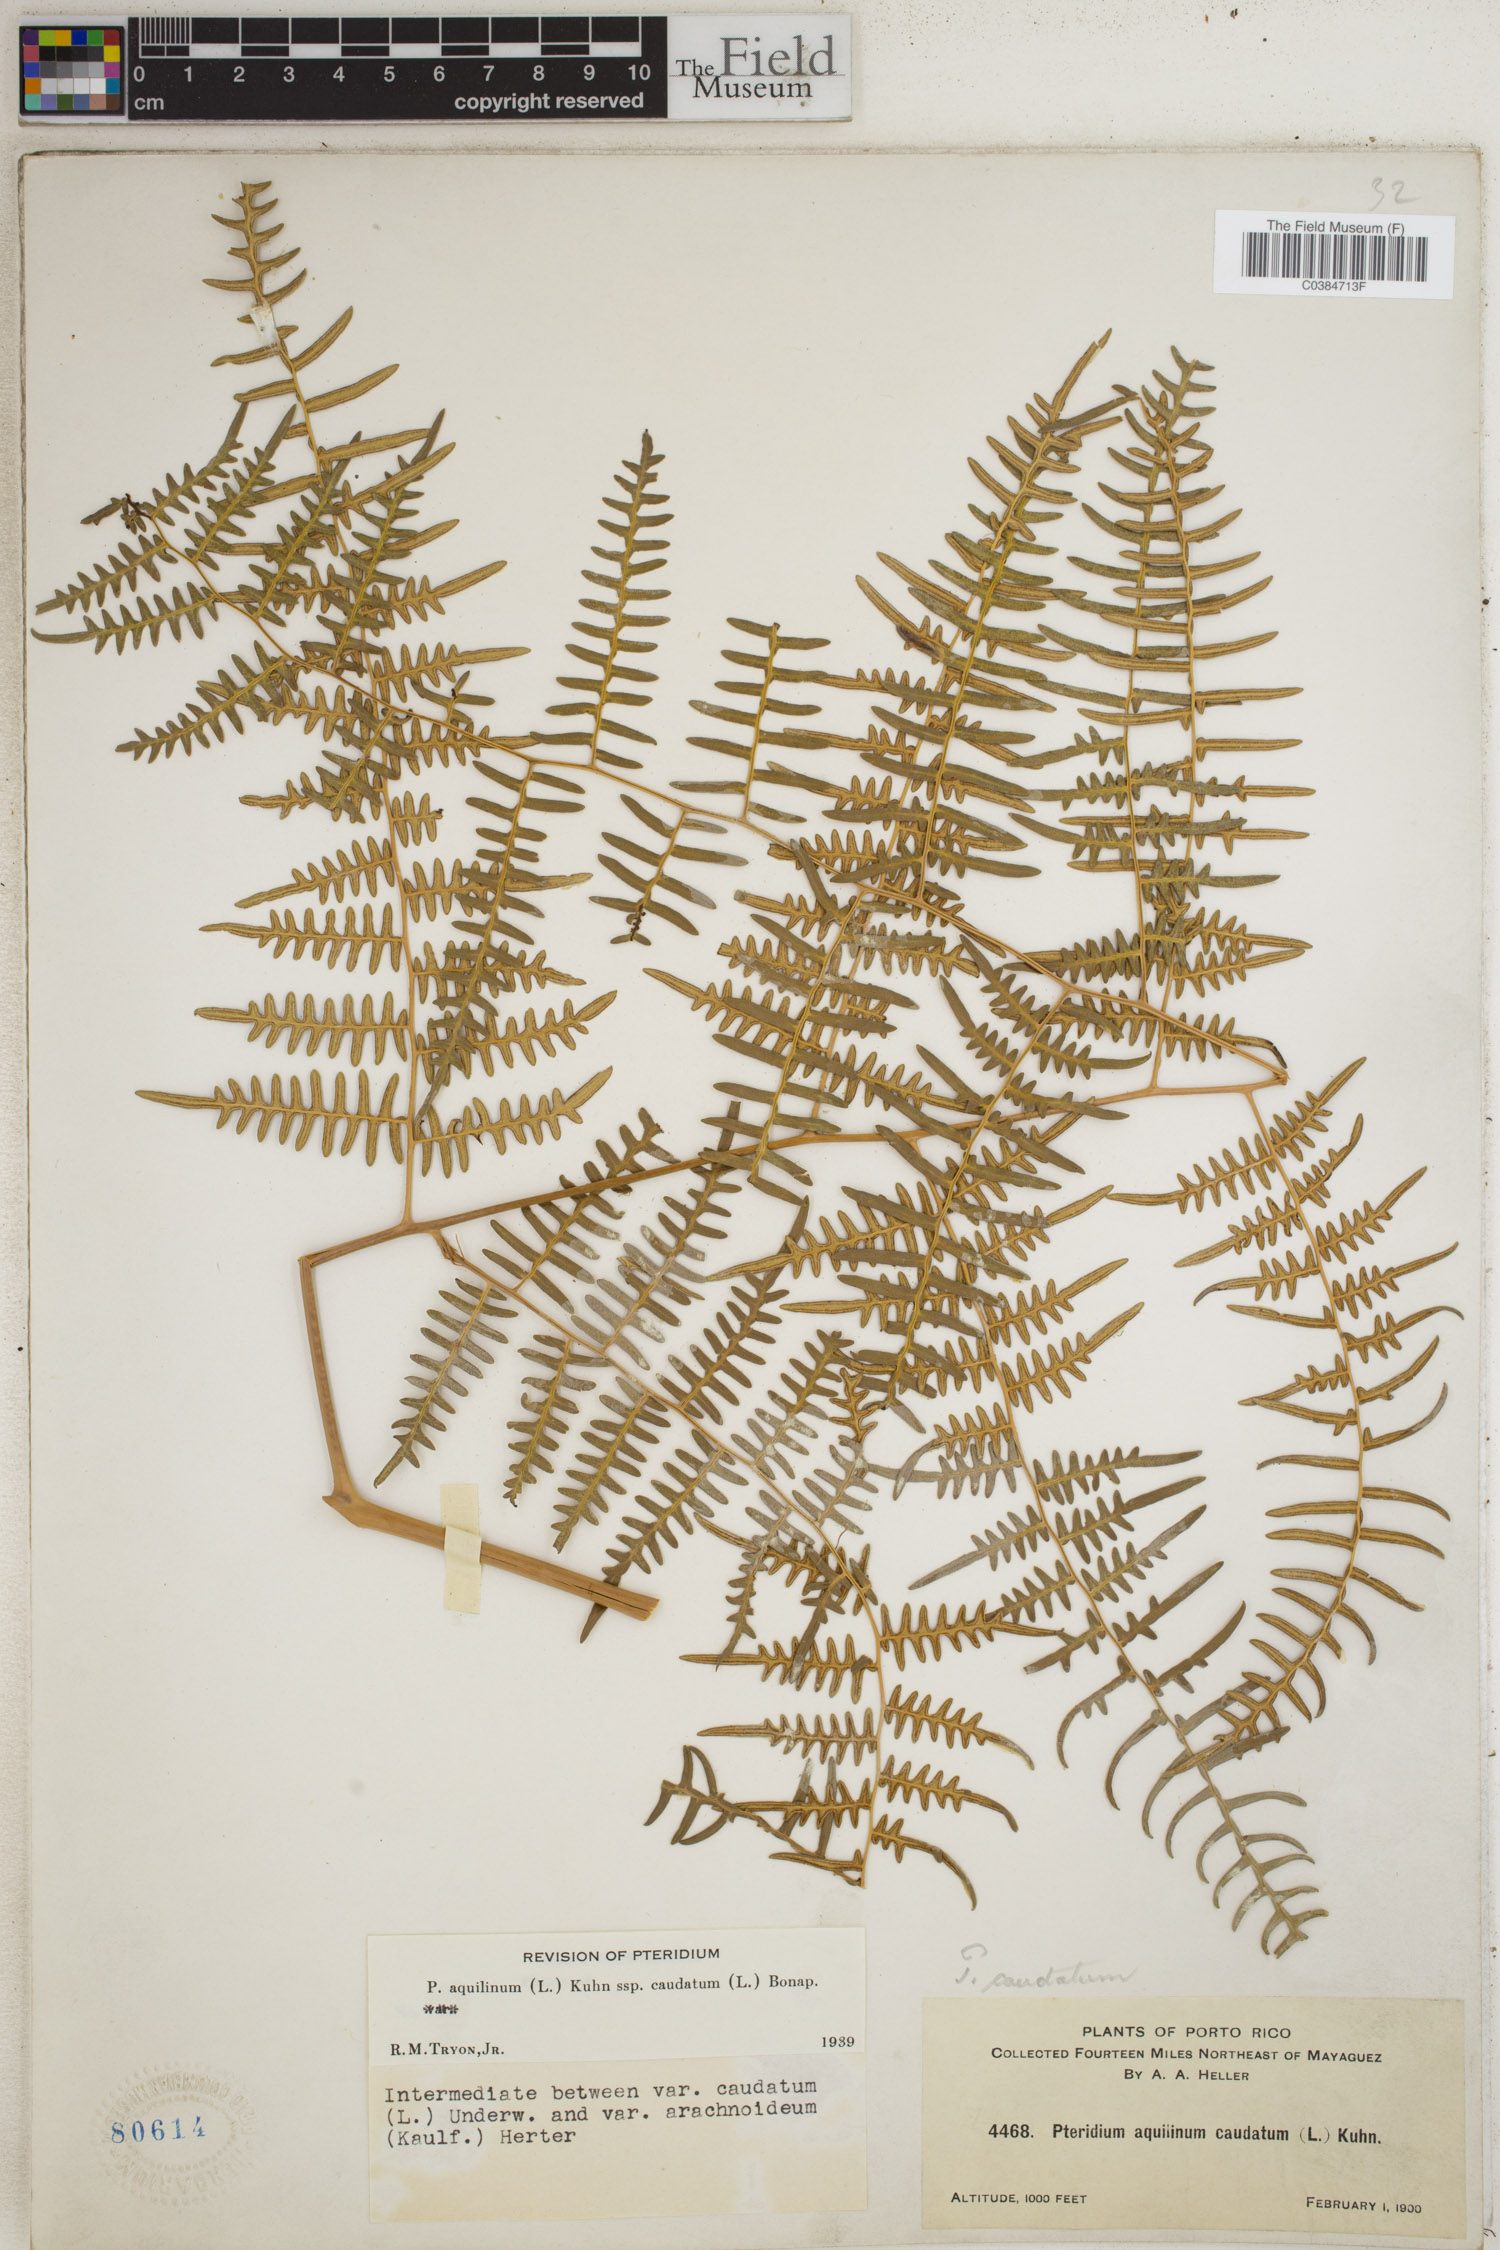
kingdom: Plantae
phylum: Tracheophyta
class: Polypodiopsida
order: Polypodiales
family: Dennstaedtiaceae
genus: Pteridium
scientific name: Pteridium caudatum
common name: Southern bracken fern
